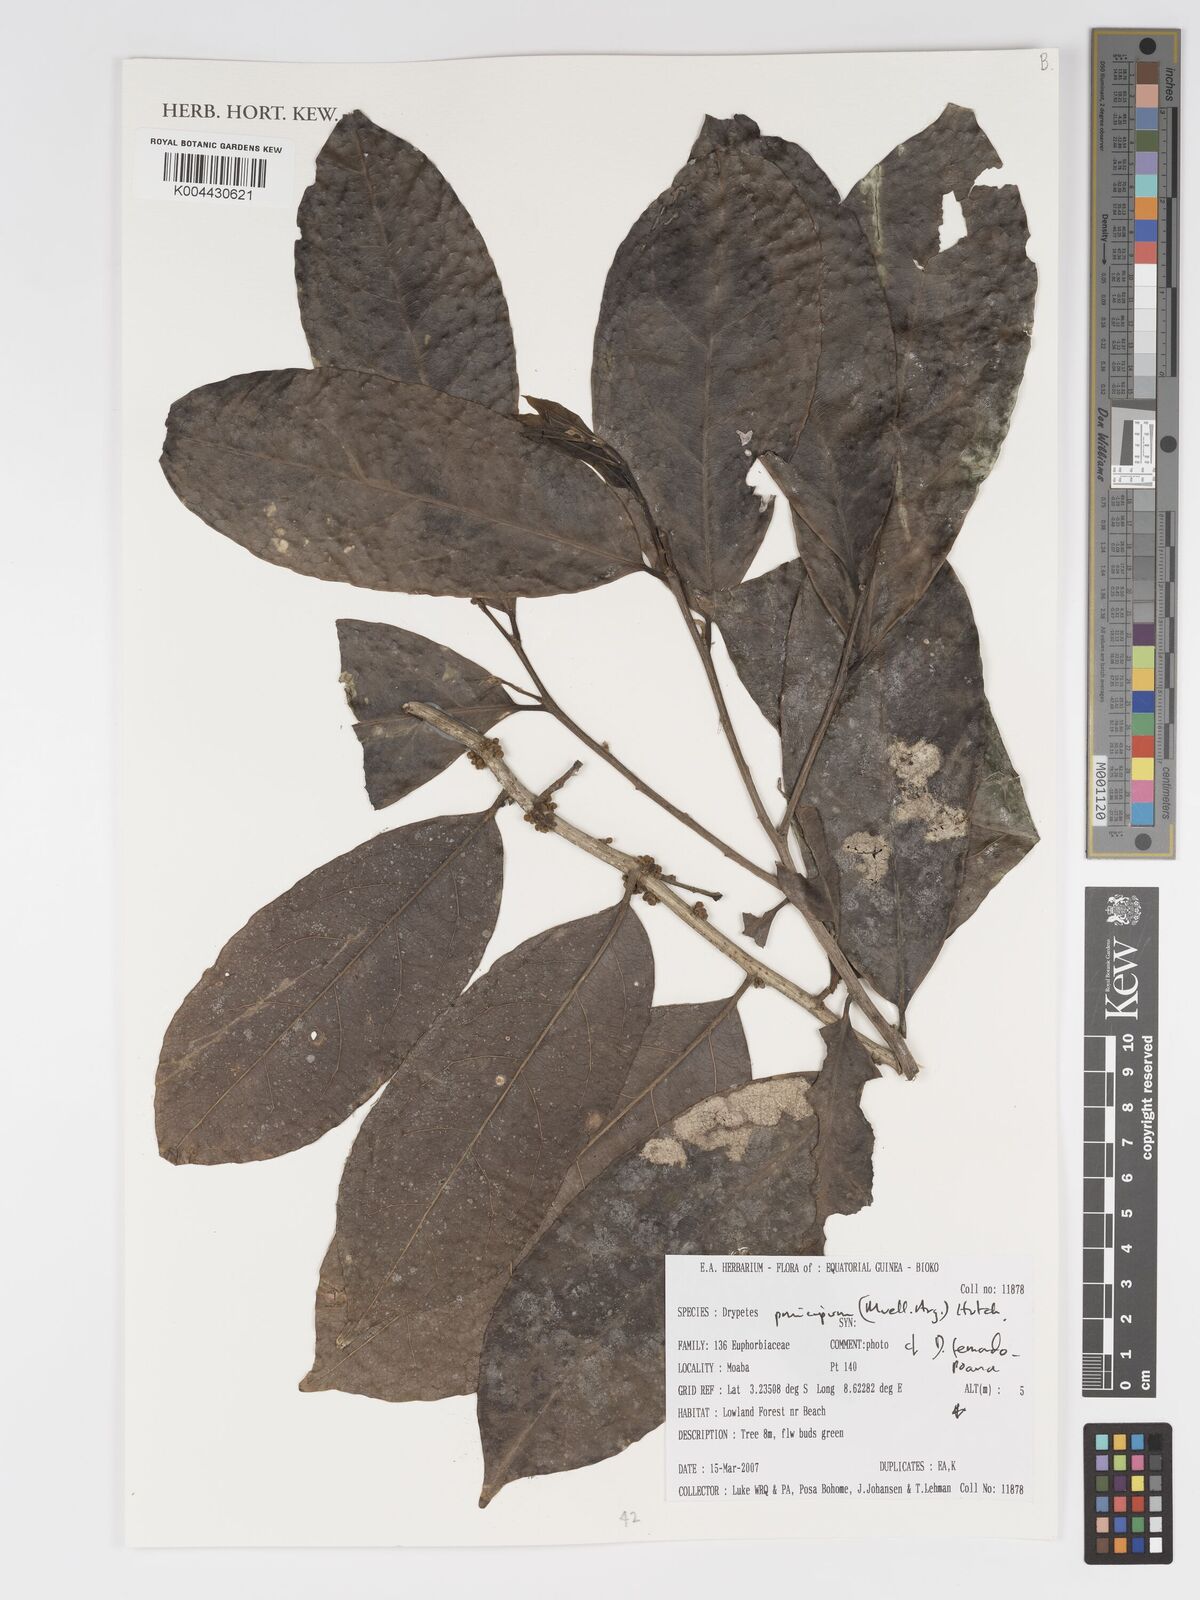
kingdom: Plantae
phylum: Tracheophyta
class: Magnoliopsida
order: Malpighiales
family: Putranjivaceae
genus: Drypetes
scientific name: Drypetes principum
